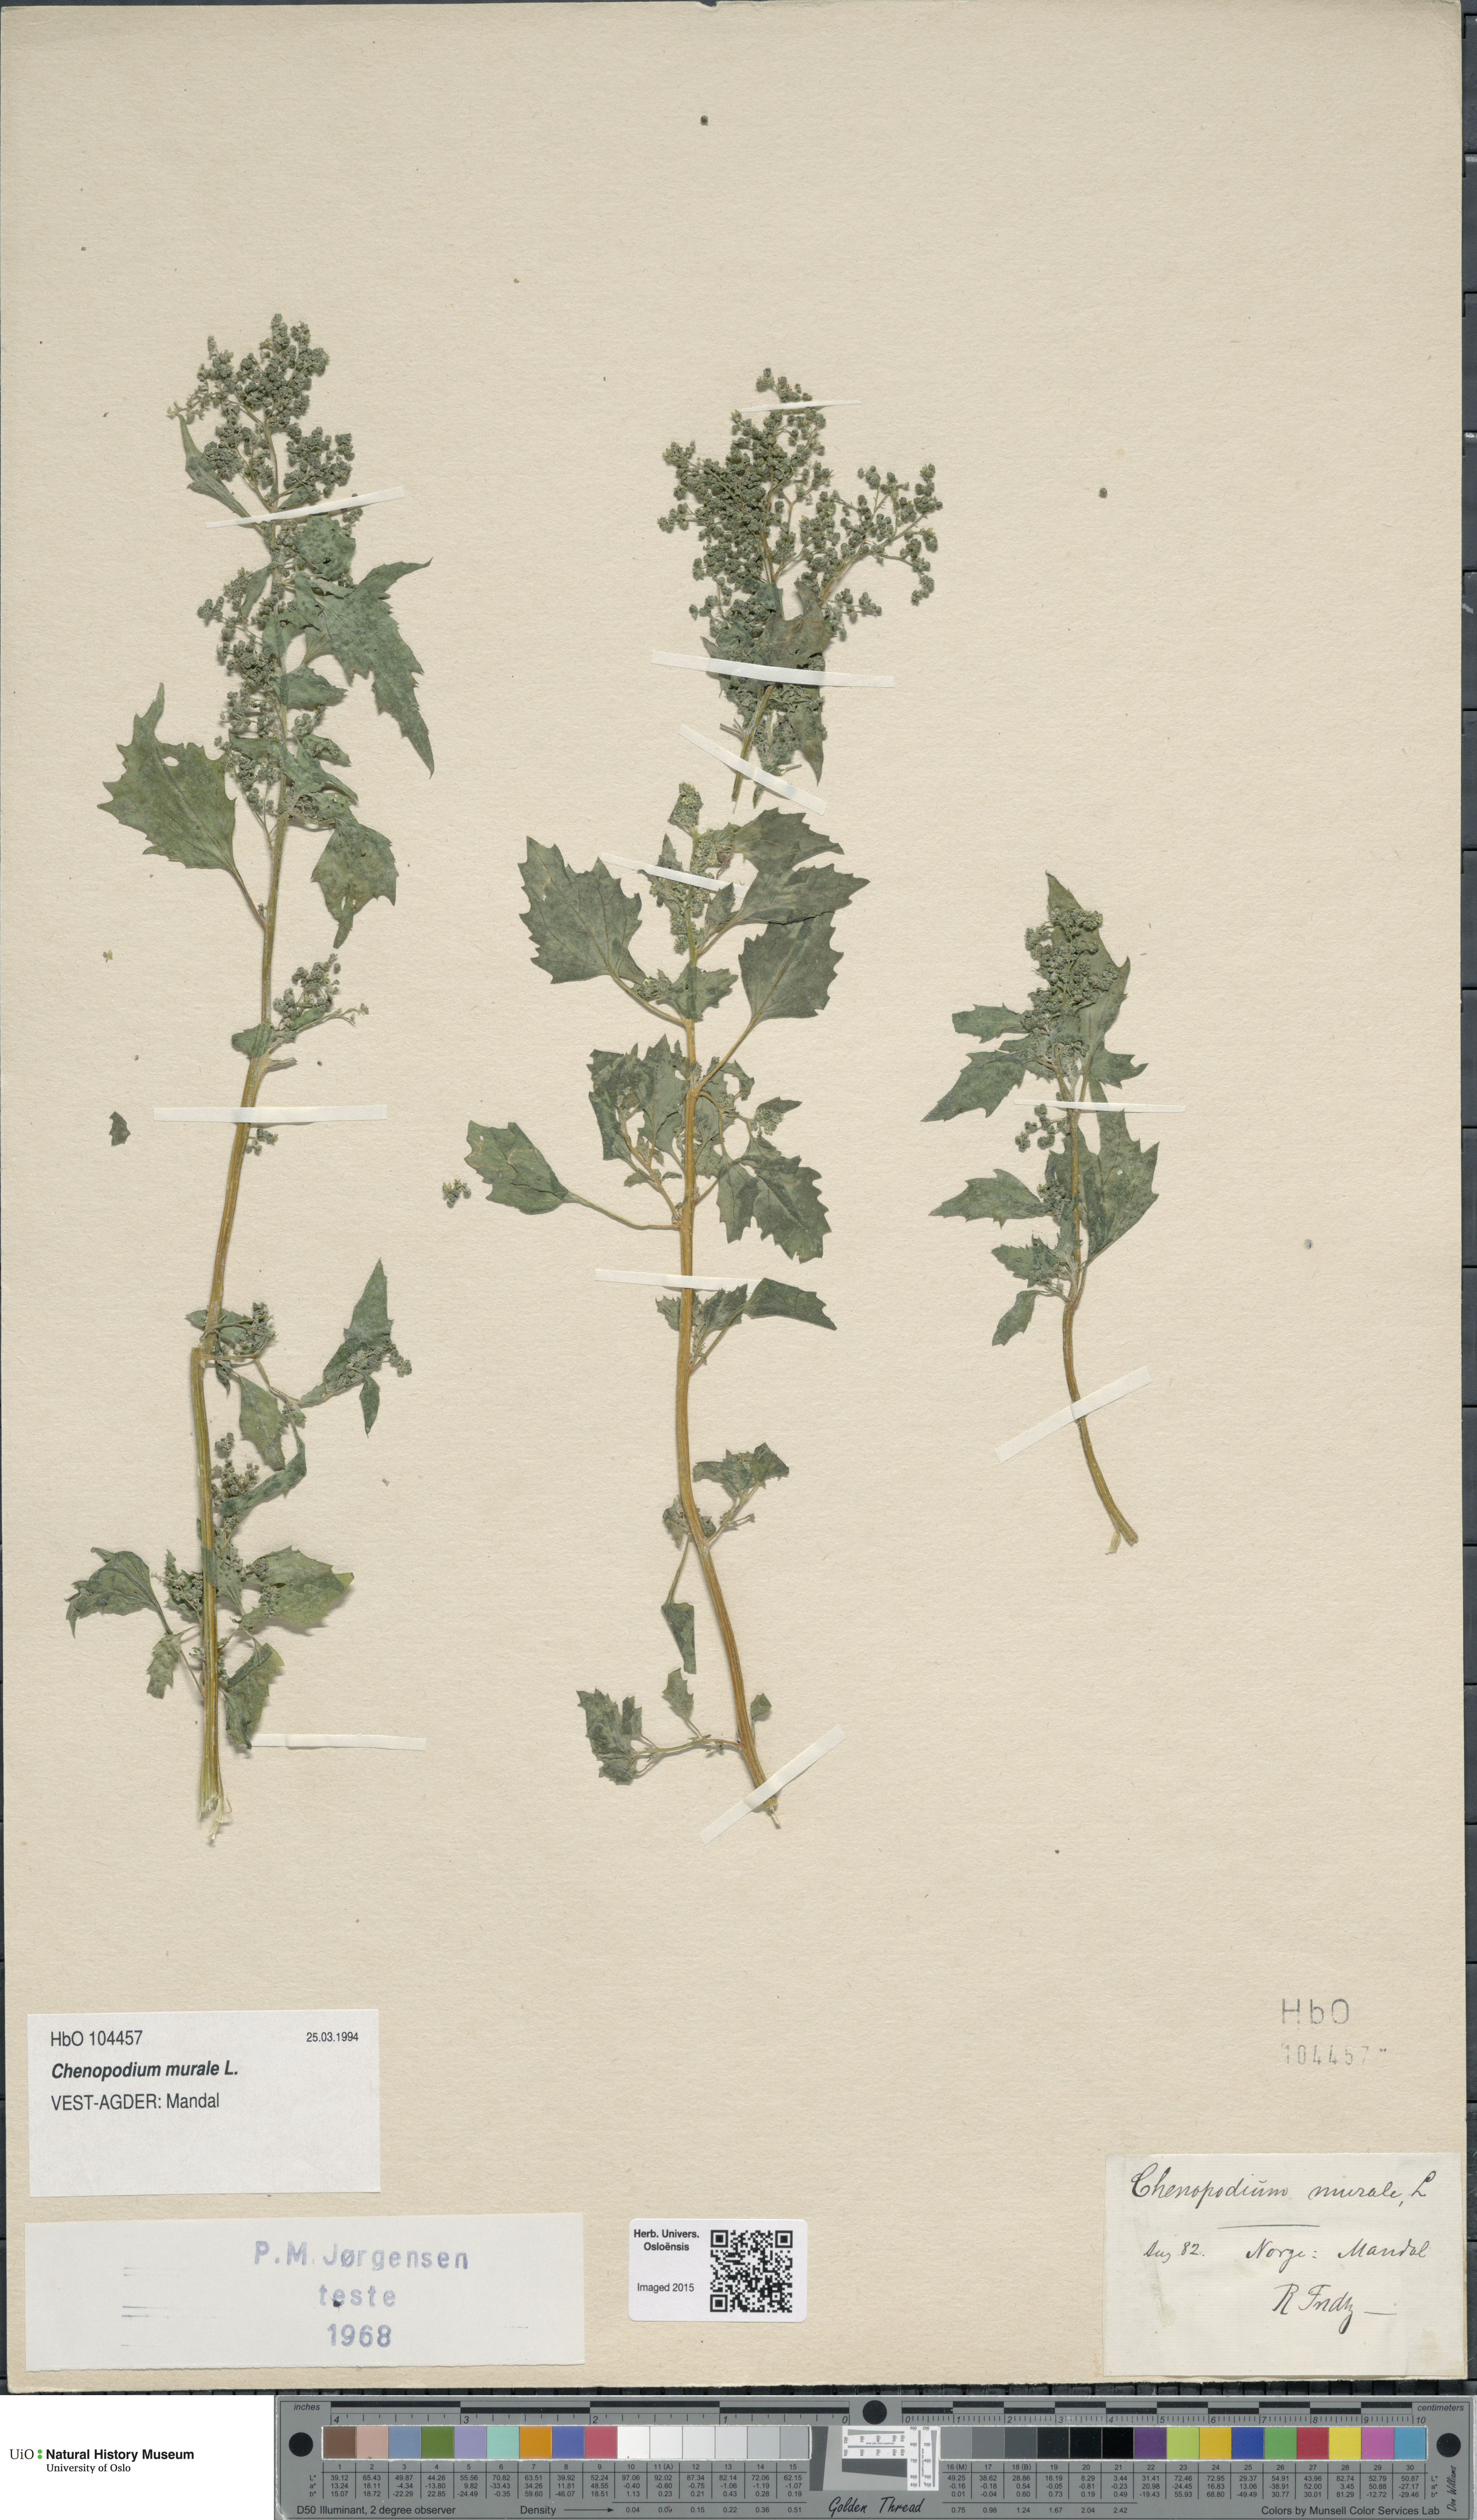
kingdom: Plantae
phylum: Tracheophyta
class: Magnoliopsida
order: Caryophyllales
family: Amaranthaceae
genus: Chenopodiastrum
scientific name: Chenopodiastrum murale
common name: Sowbane
